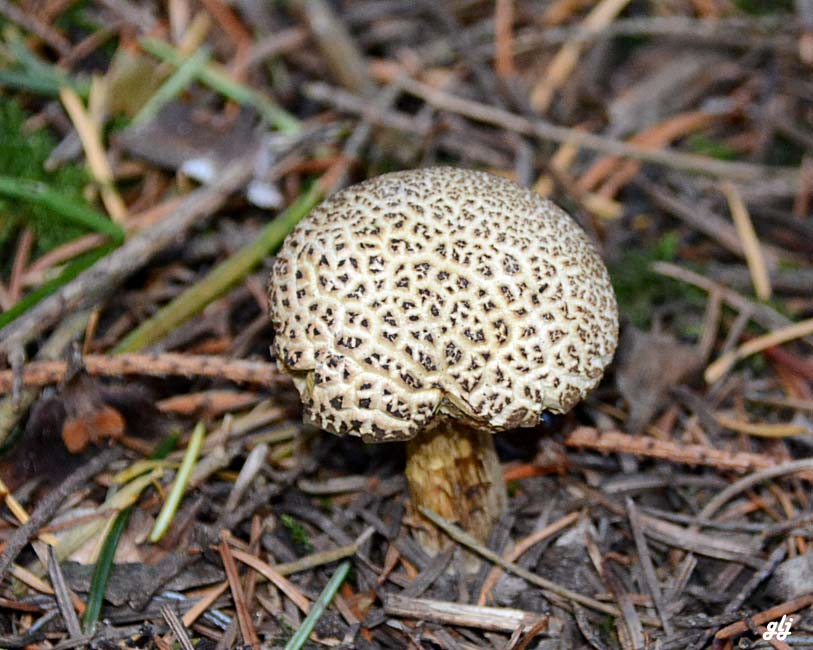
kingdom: Fungi
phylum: Basidiomycota
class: Agaricomycetes
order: Boletales
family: Boletaceae
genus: Xerocomellus
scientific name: Xerocomellus porosporus
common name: hvidsprukken rørhat
